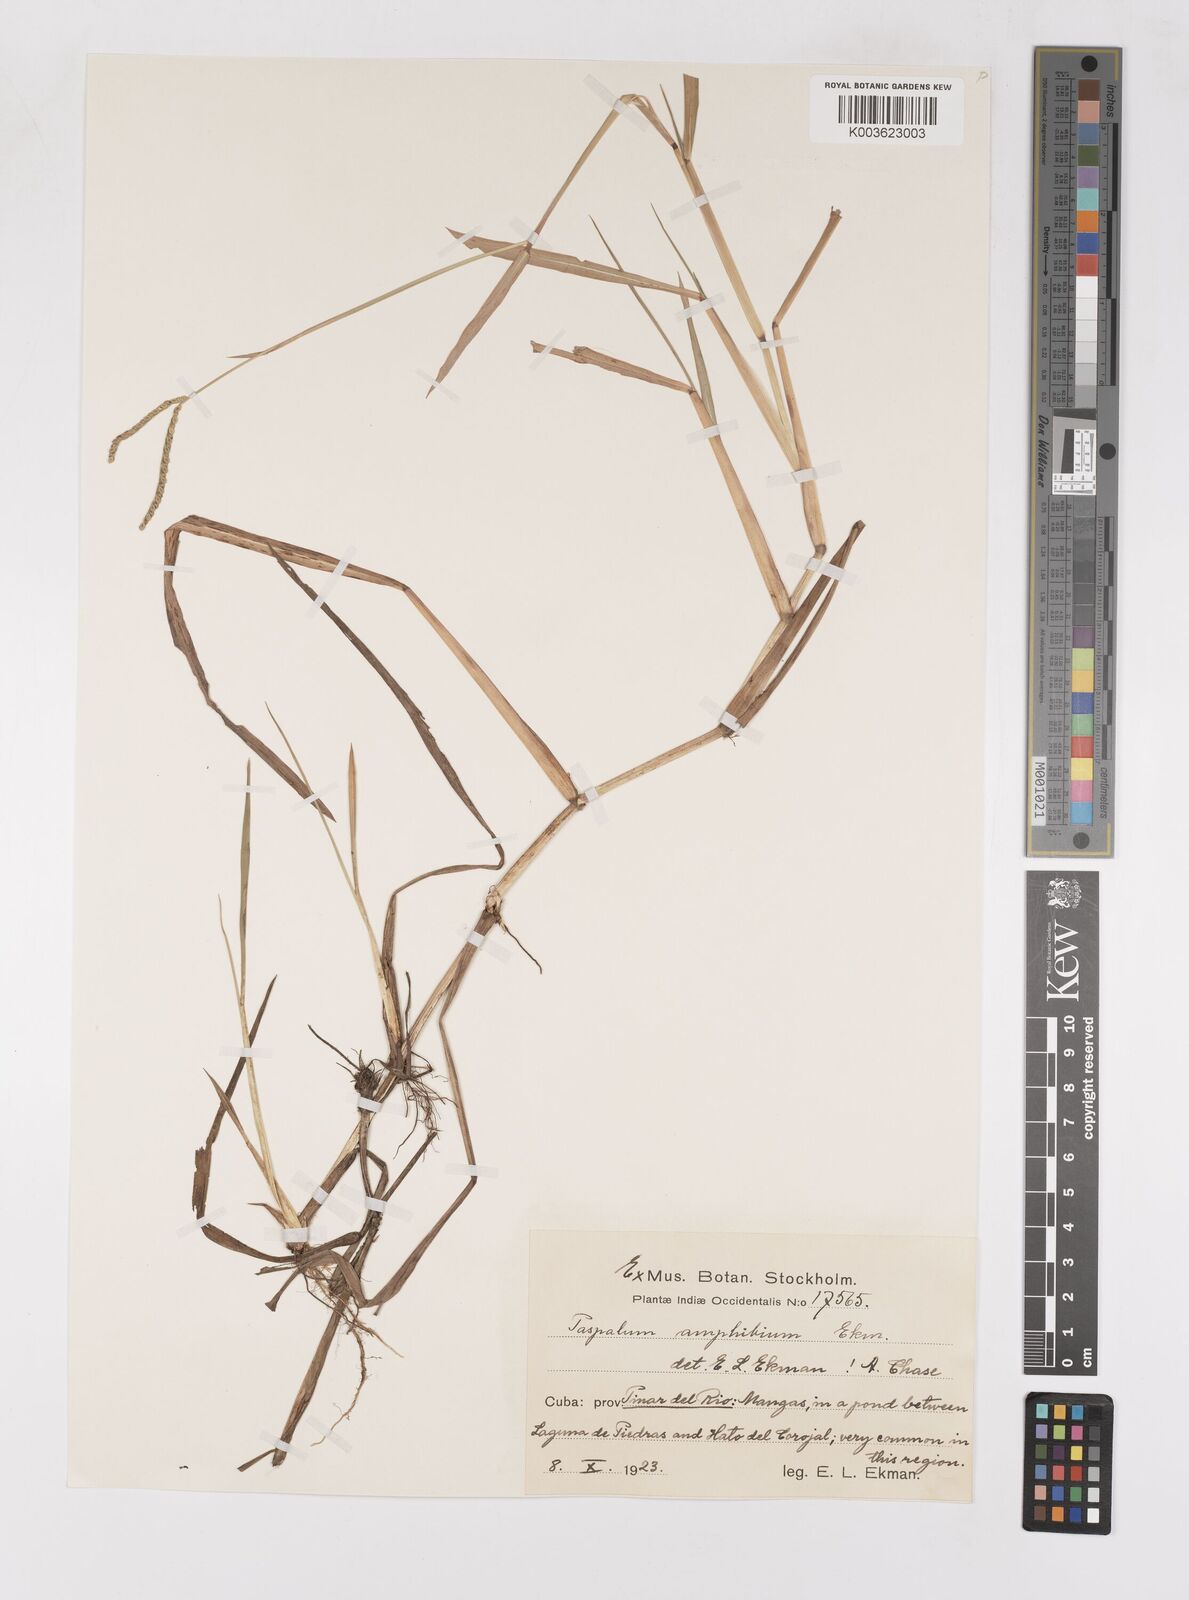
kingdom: Plantae
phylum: Tracheophyta
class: Liliopsida
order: Poales
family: Poaceae
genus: Paspalum
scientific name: Paspalum amphicarpum
